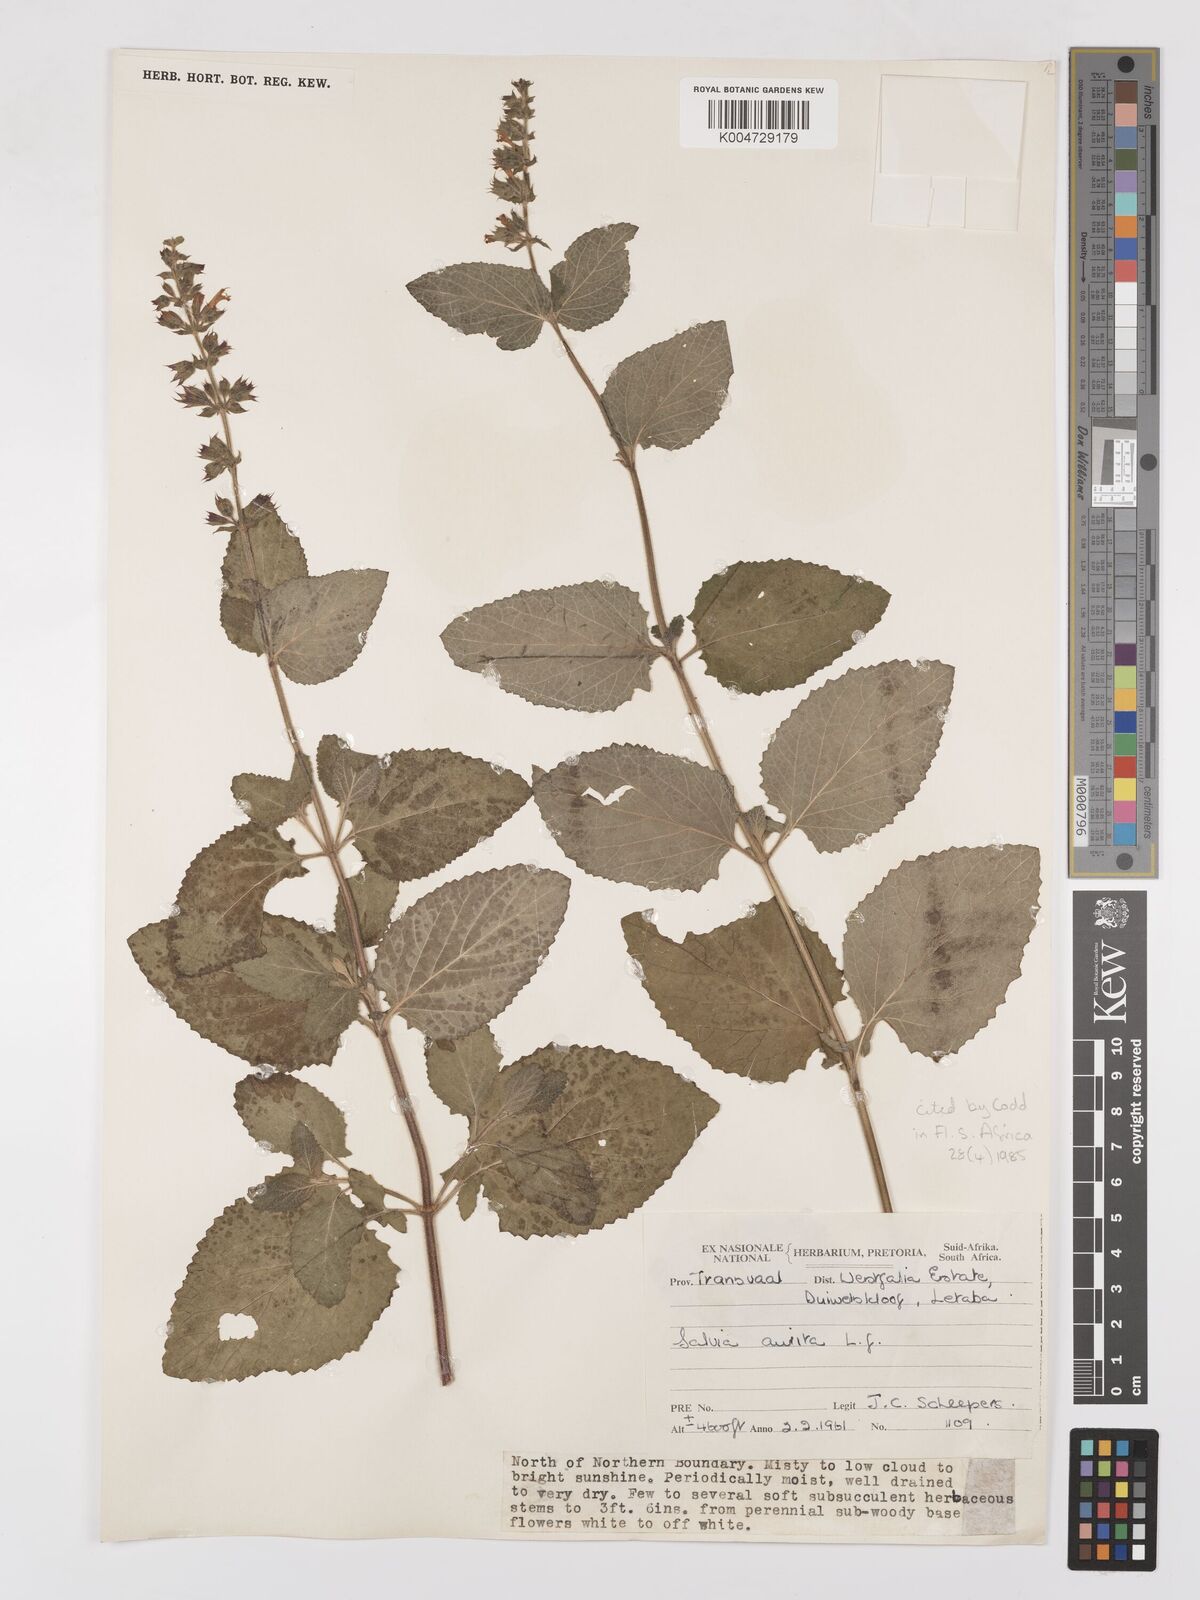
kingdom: Plantae
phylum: Tracheophyta
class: Magnoliopsida
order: Lamiales
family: Lamiaceae
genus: Salvia
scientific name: Salvia aurita
